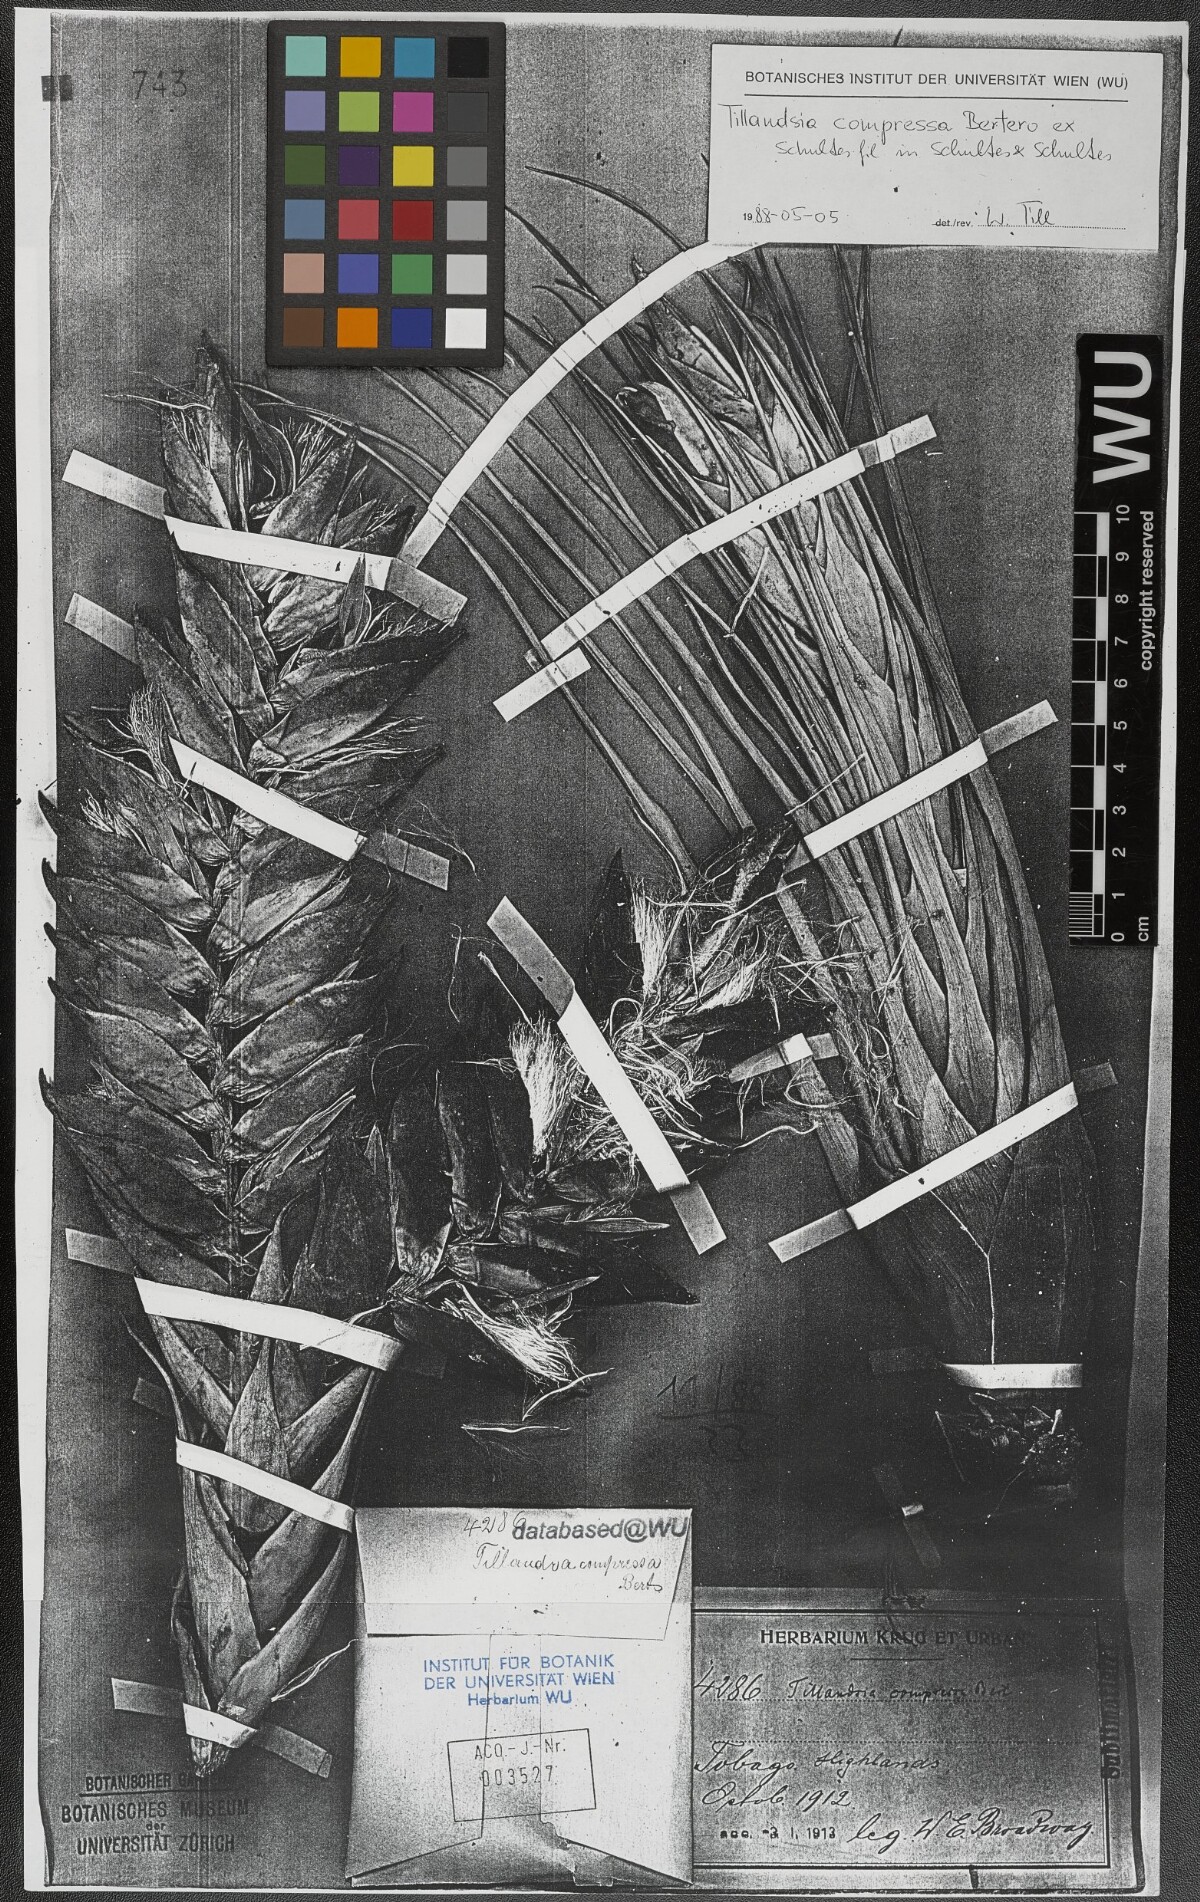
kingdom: Plantae
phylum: Tracheophyta
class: Liliopsida
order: Poales
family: Bromeliaceae
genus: Tillandsia
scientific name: Tillandsia compressa
